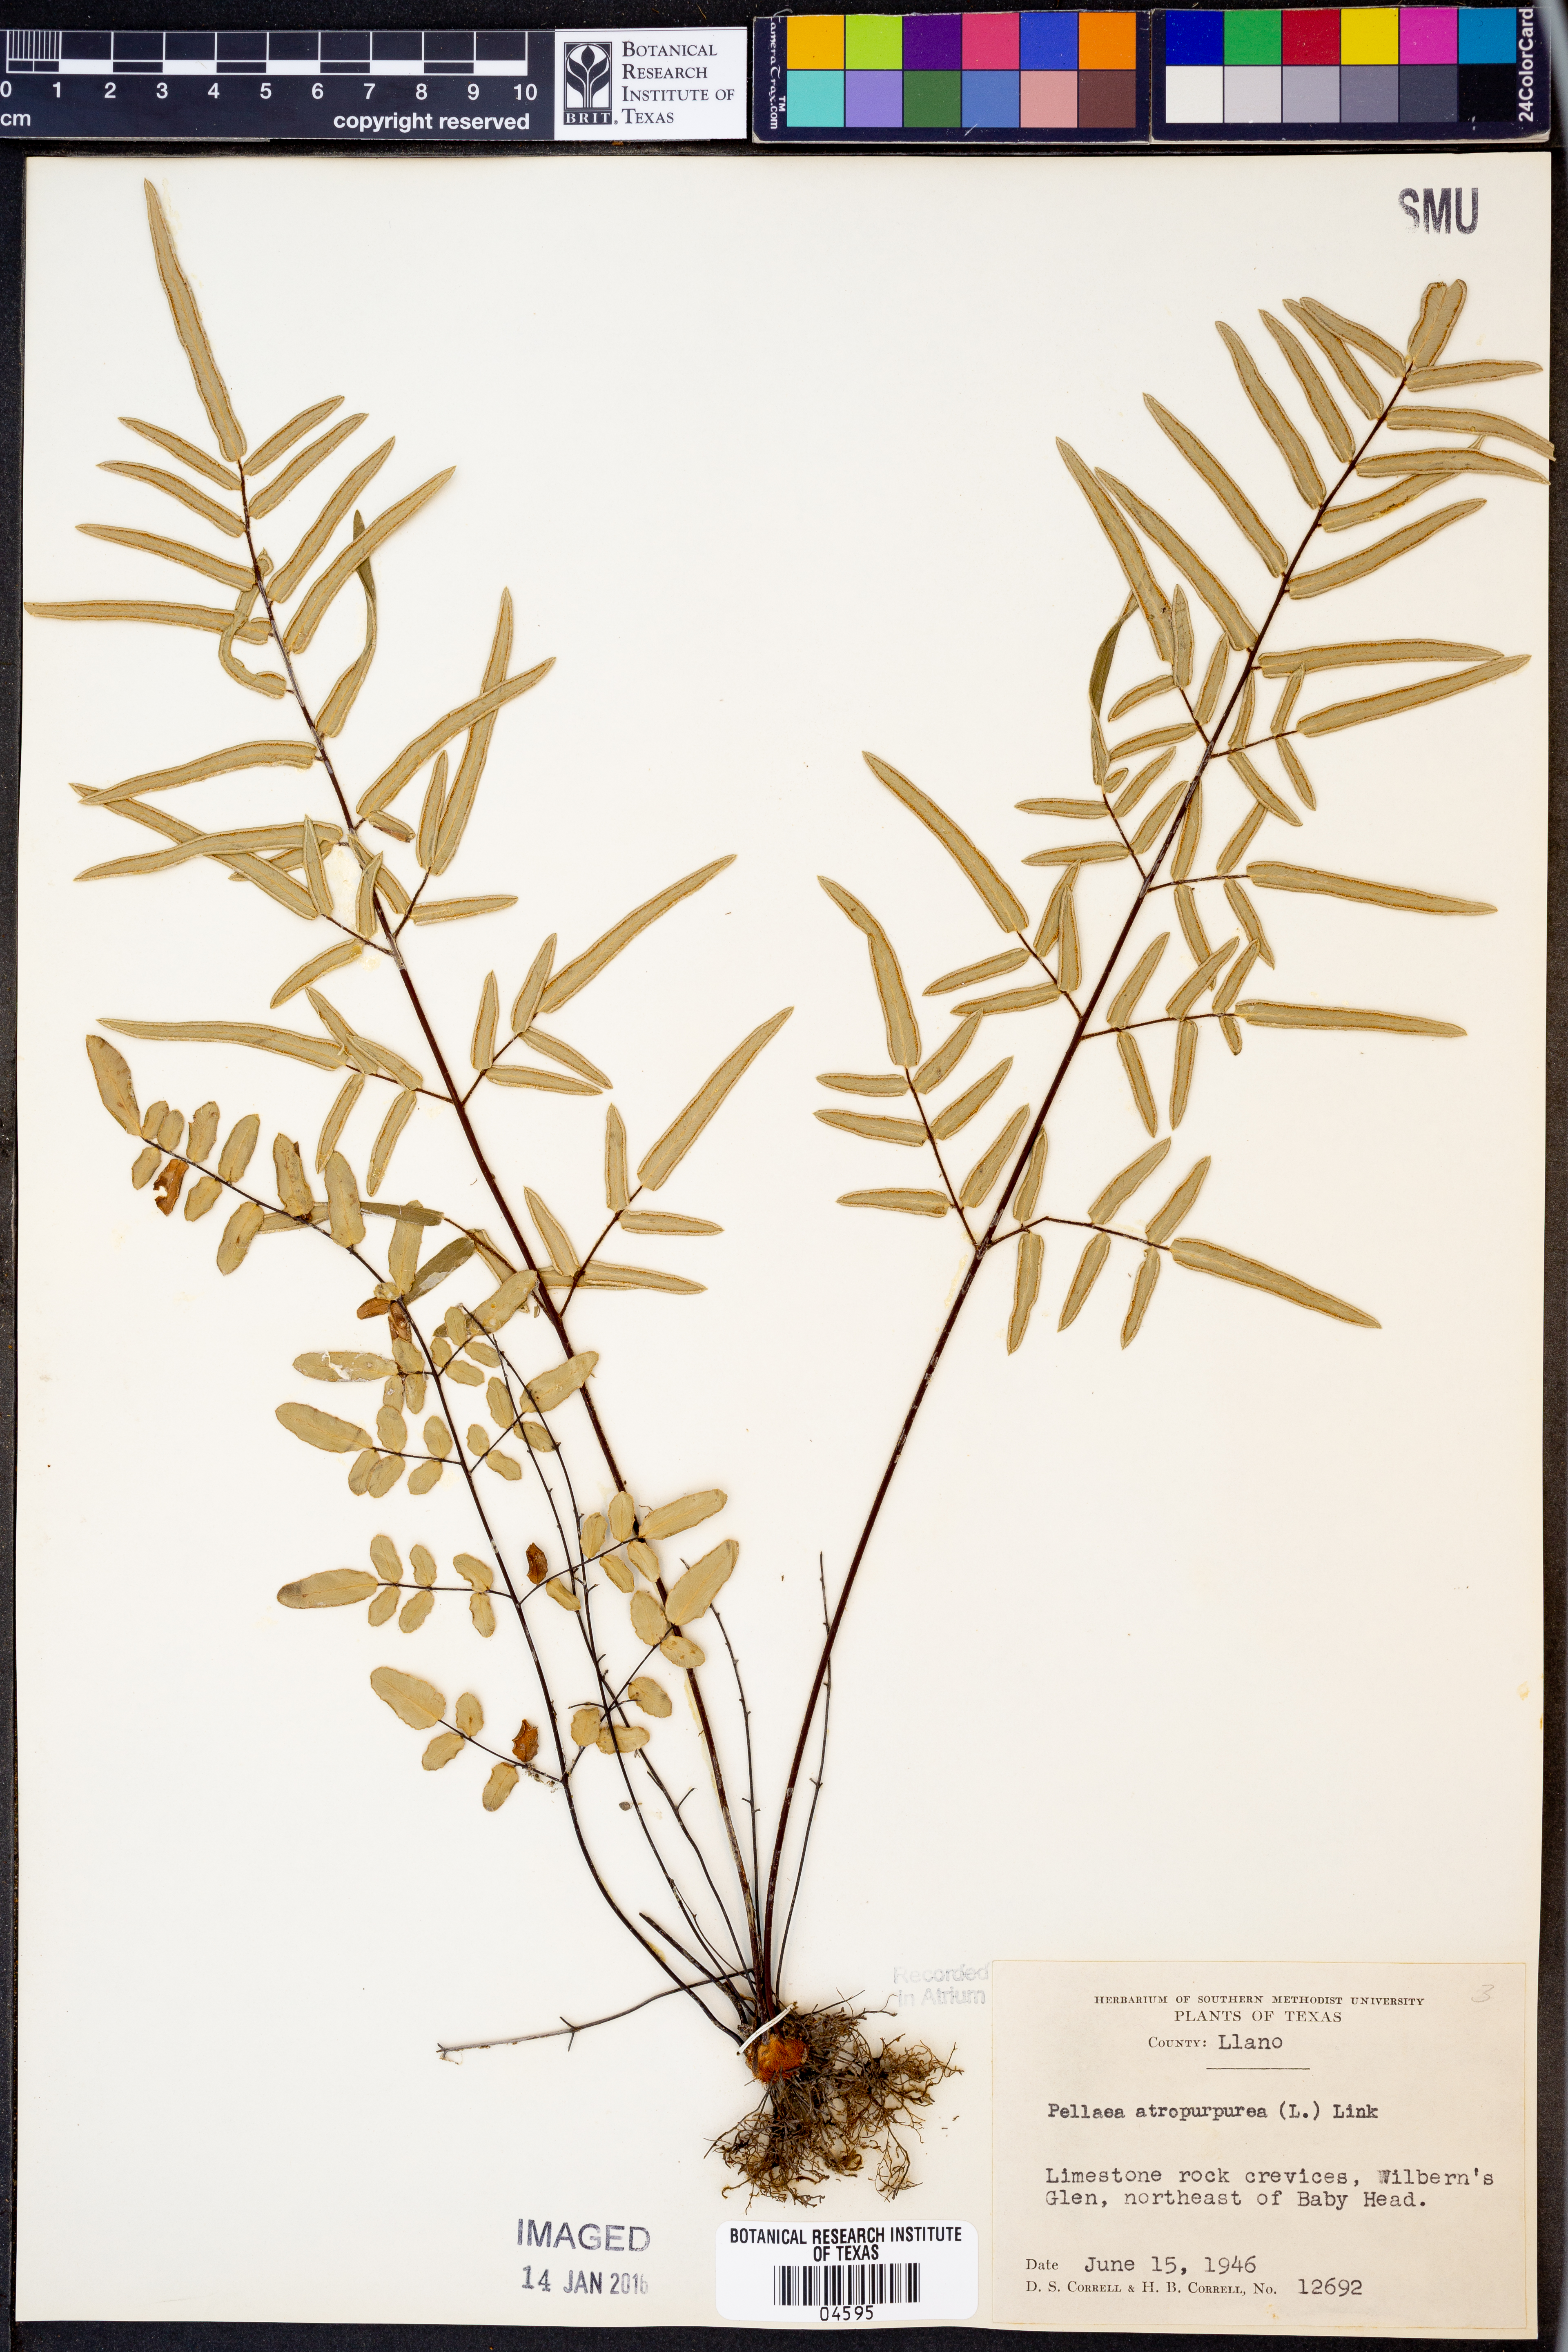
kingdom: Plantae
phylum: Tracheophyta
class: Polypodiopsida
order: Polypodiales
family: Pteridaceae
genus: Pellaea
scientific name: Pellaea atropurpurea
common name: Hairy cliffbrake
